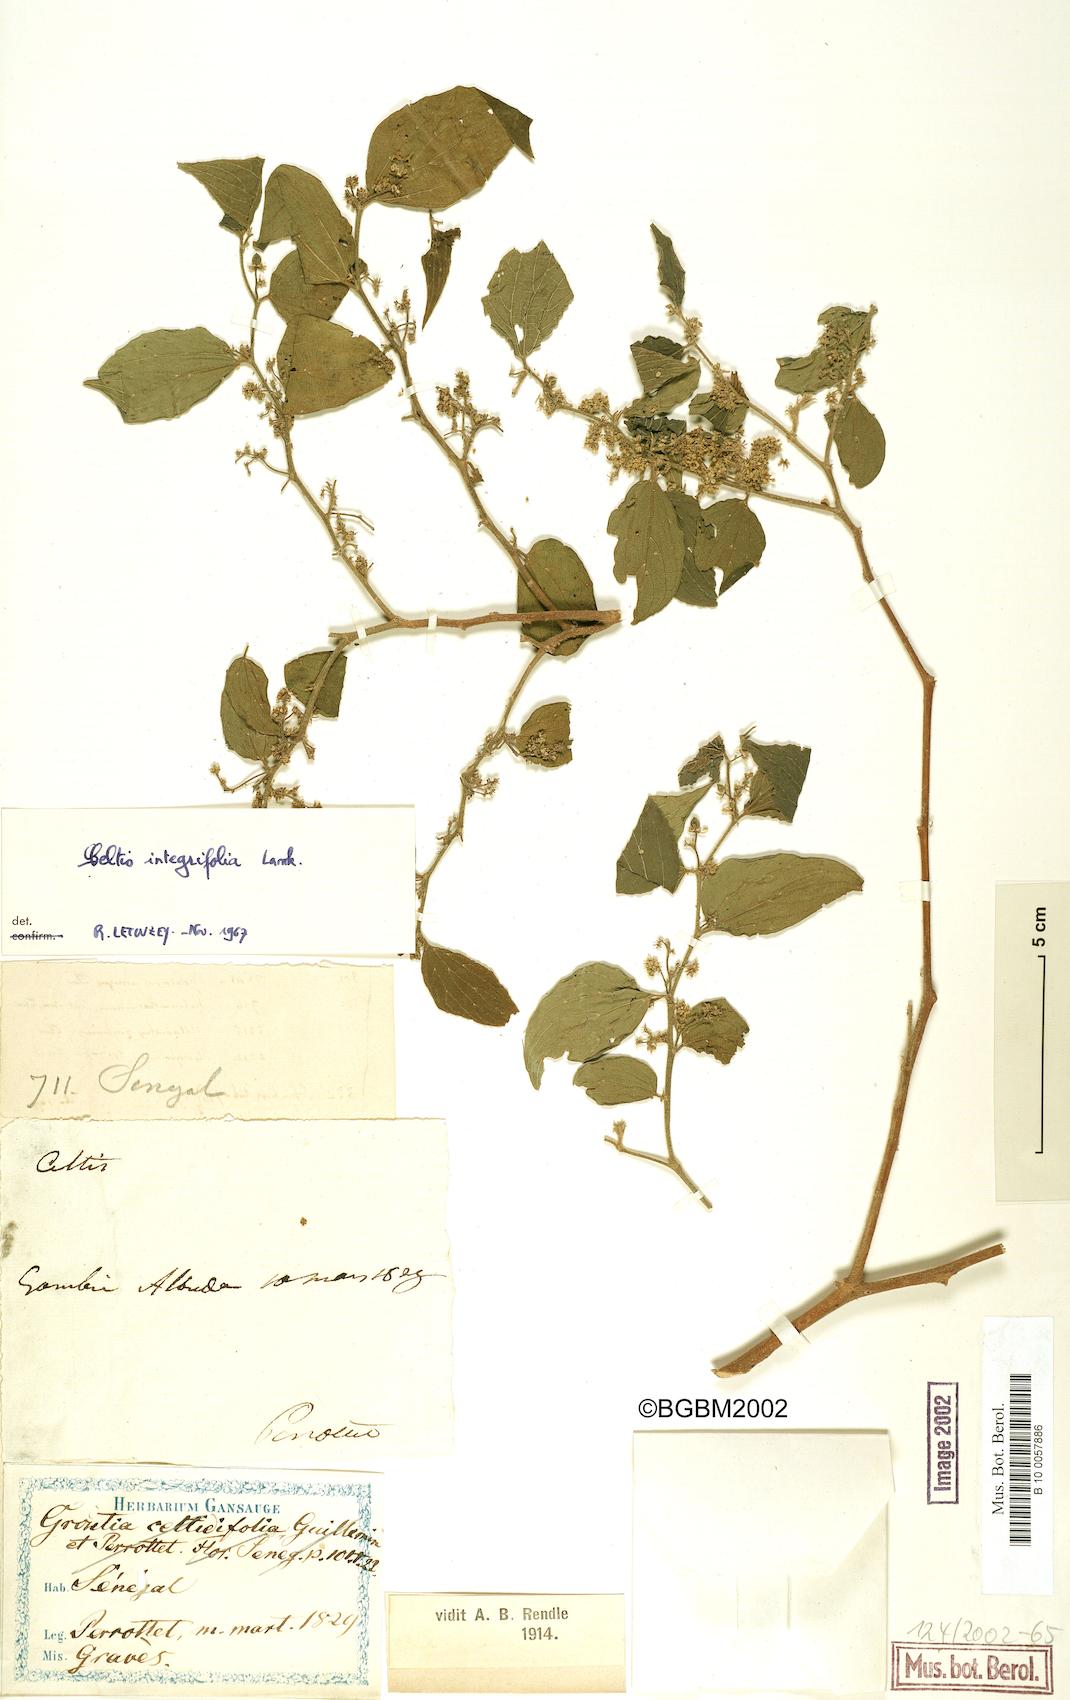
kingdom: Plantae
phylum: Tracheophyta
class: Magnoliopsida
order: Rosales
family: Cannabaceae
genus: Celtis
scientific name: Celtis toka
